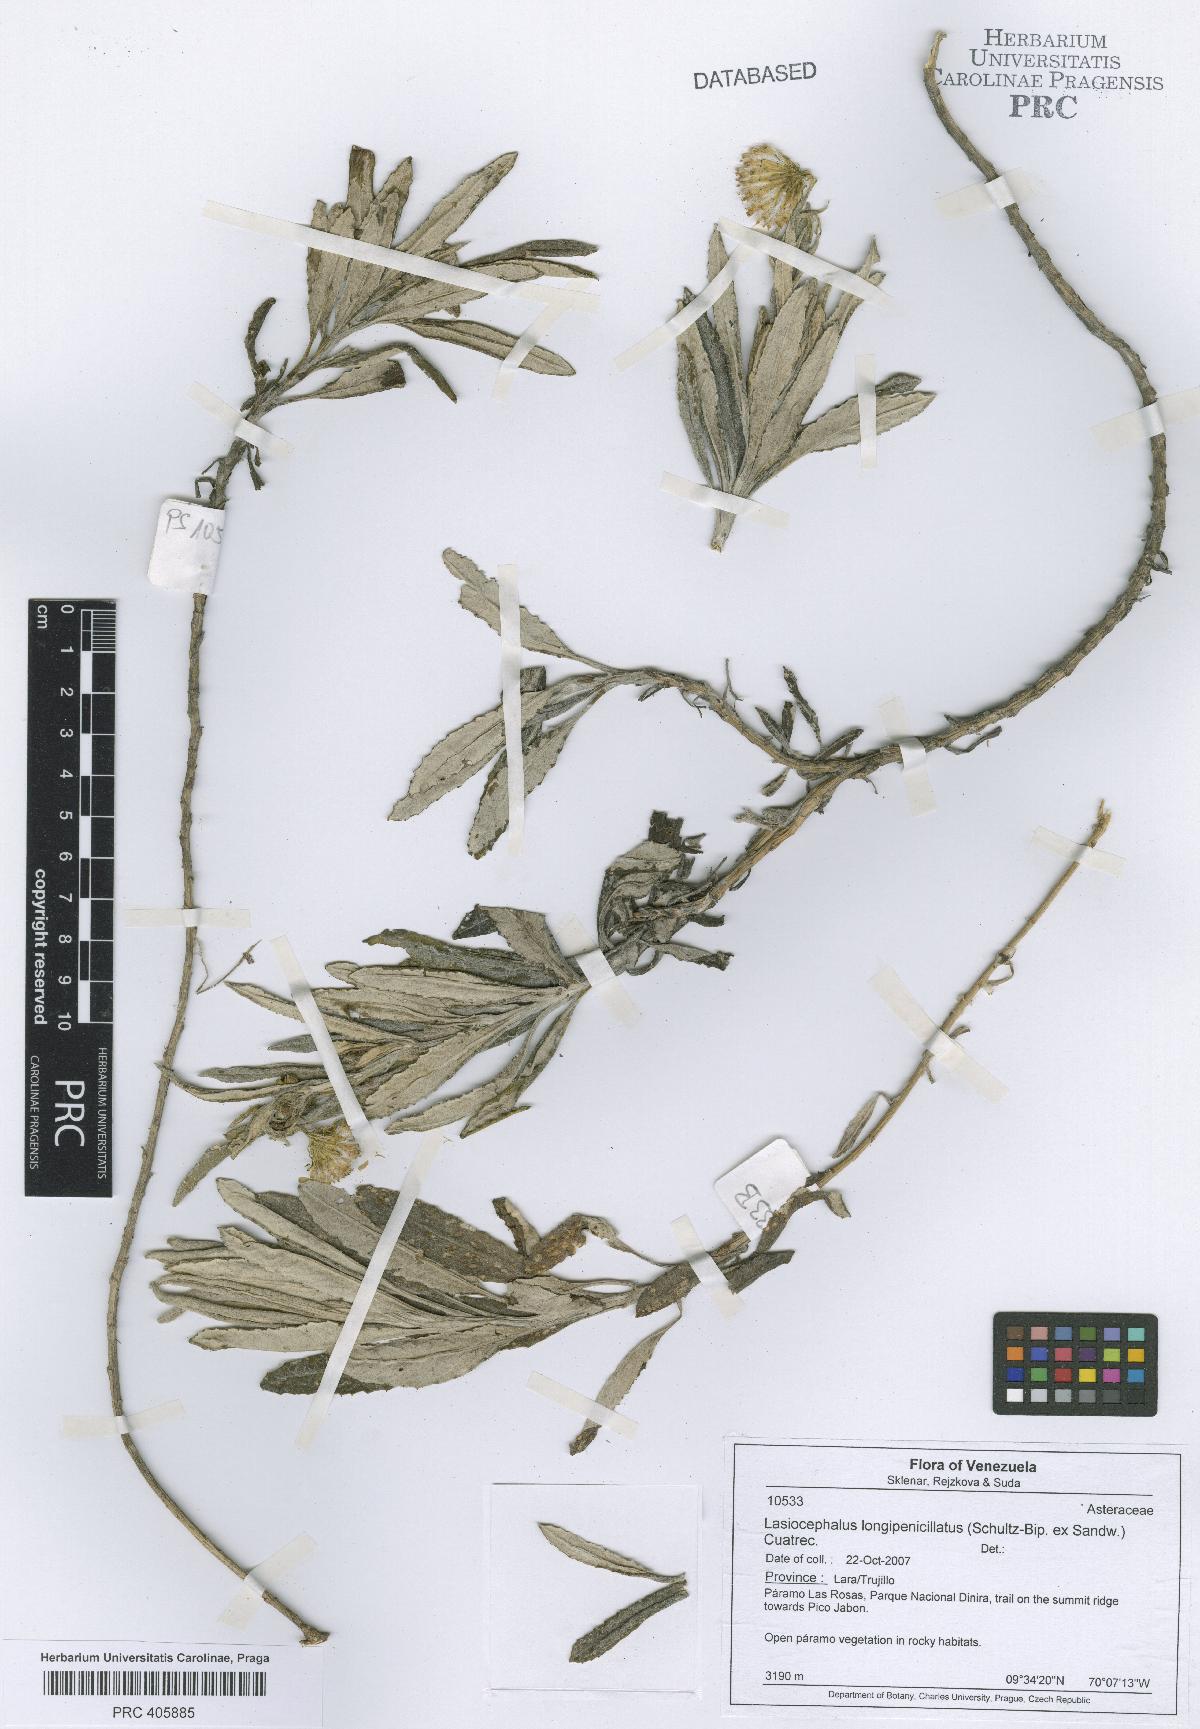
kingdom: Plantae
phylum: Tracheophyta
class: Magnoliopsida
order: Asterales
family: Asteraceae
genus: Aetheolaena
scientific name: Aetheolaena longepenicillata
